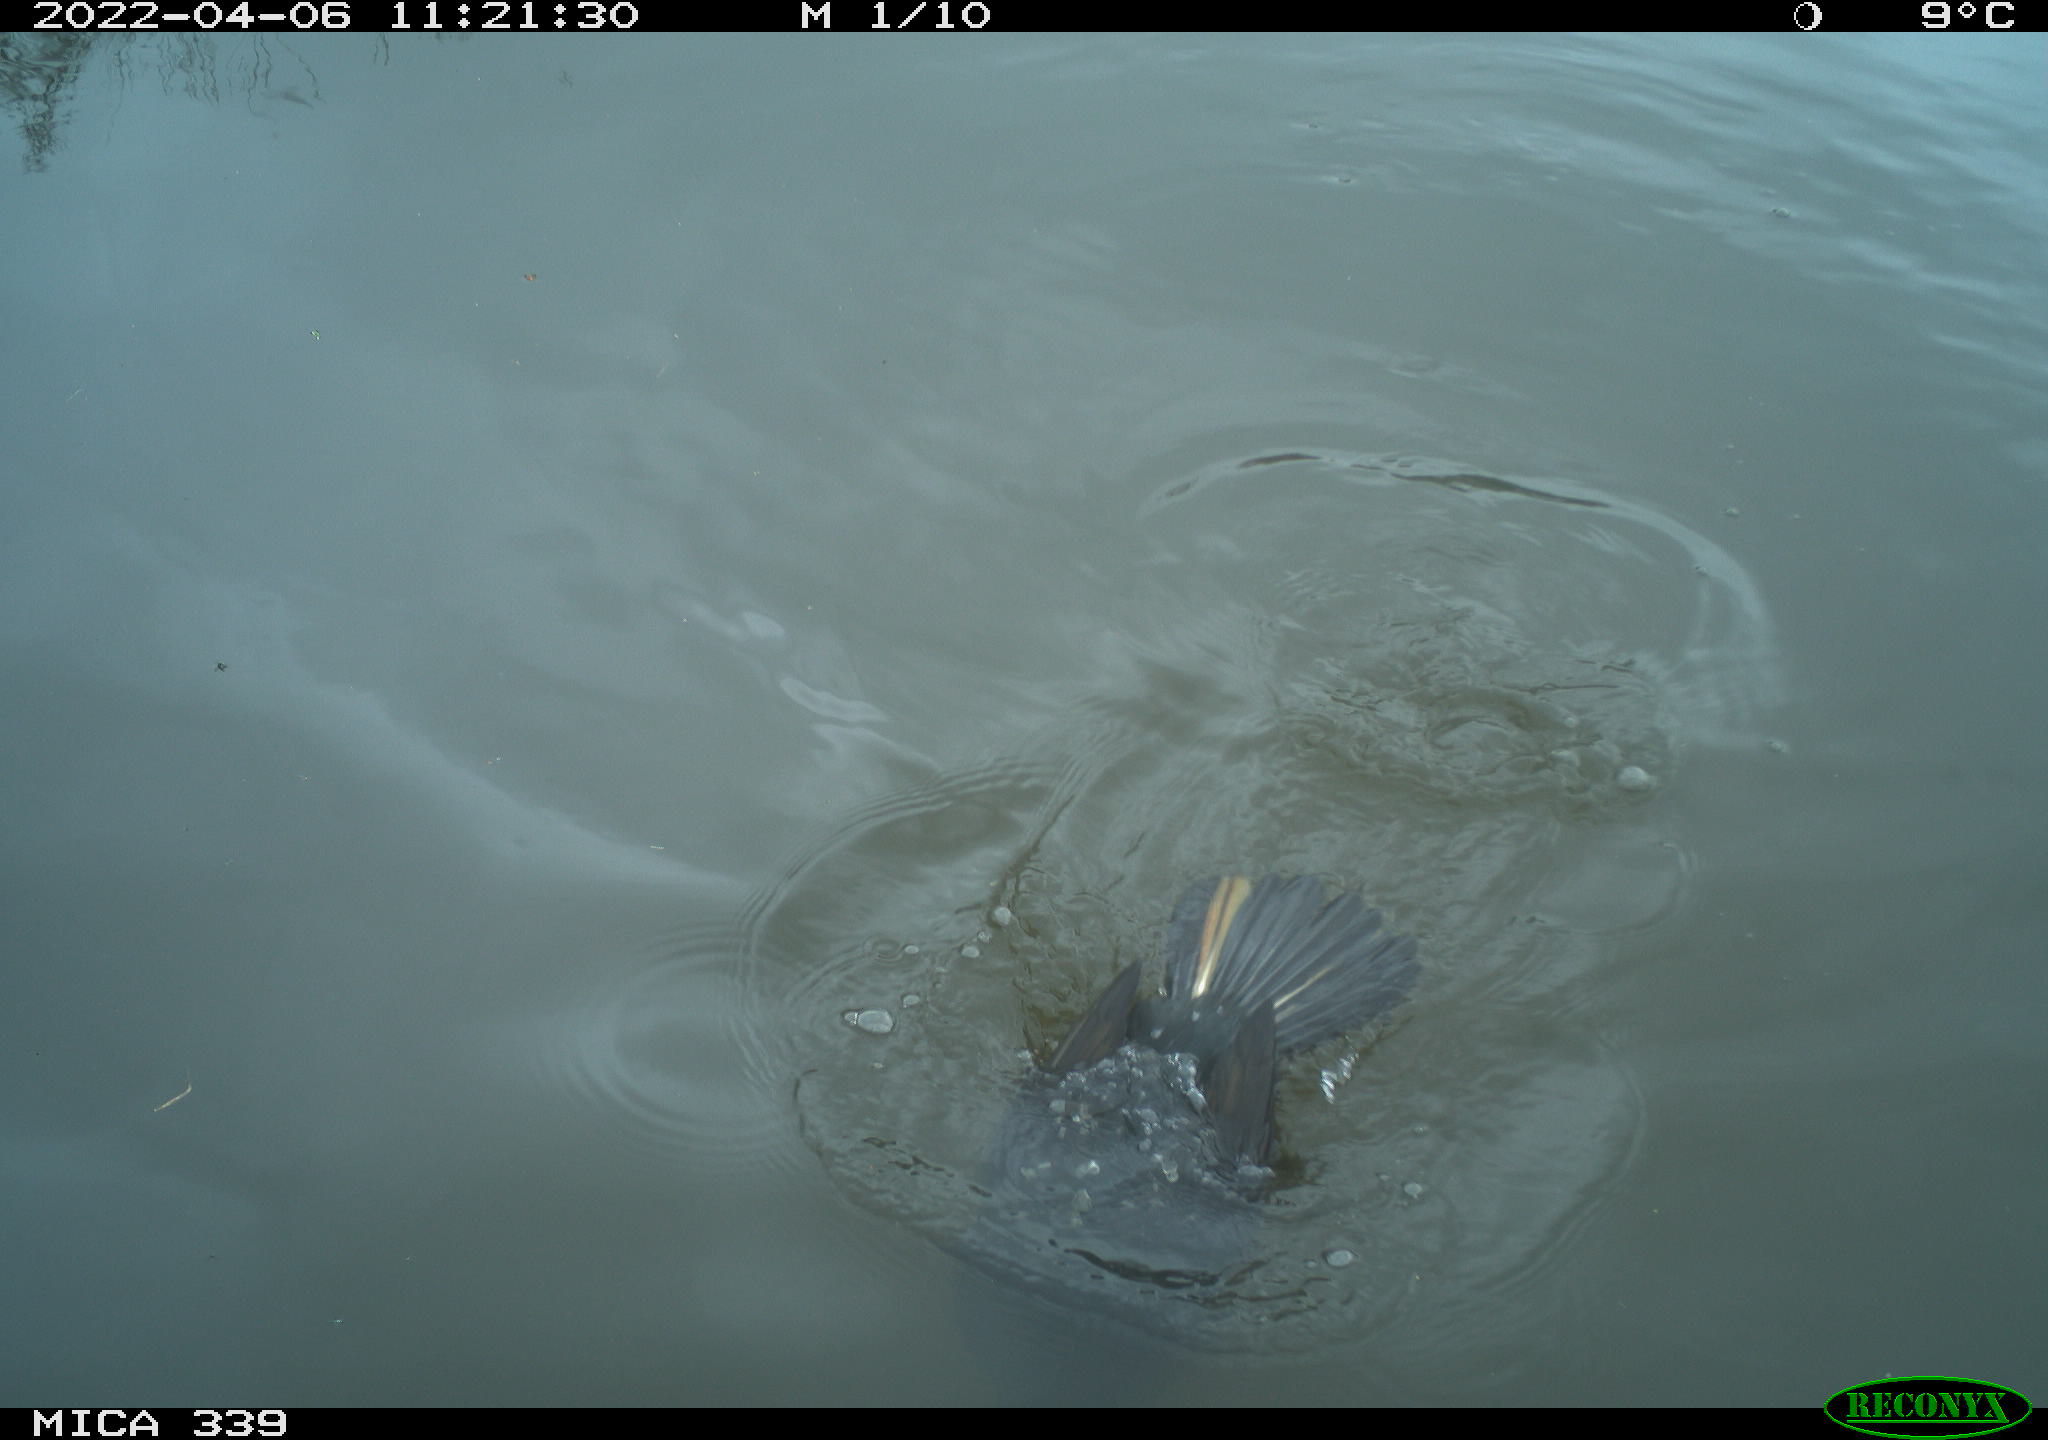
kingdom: Animalia
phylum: Chordata
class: Aves
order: Suliformes
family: Phalacrocoracidae
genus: Phalacrocorax
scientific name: Phalacrocorax carbo
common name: Great cormorant
